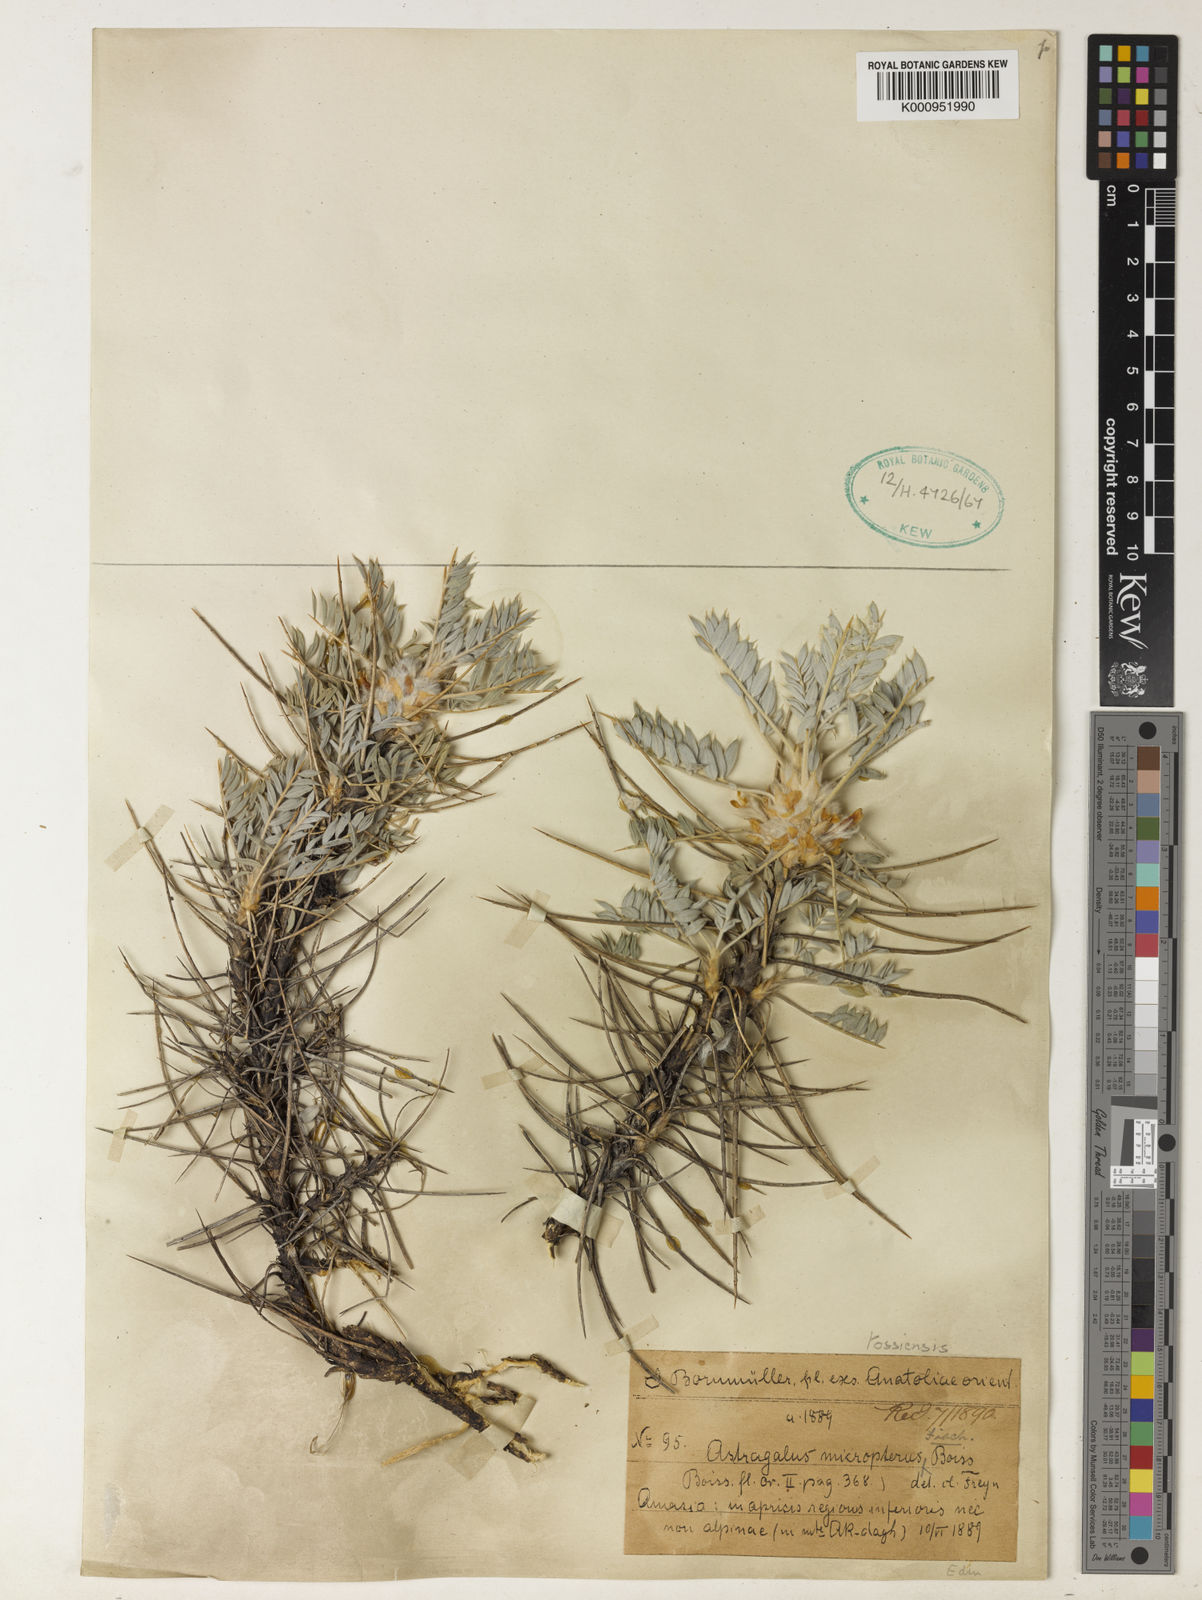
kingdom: Plantae
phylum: Tracheophyta
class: Magnoliopsida
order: Fabales
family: Fabaceae
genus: Astragalus
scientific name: Astragalus micropterus
